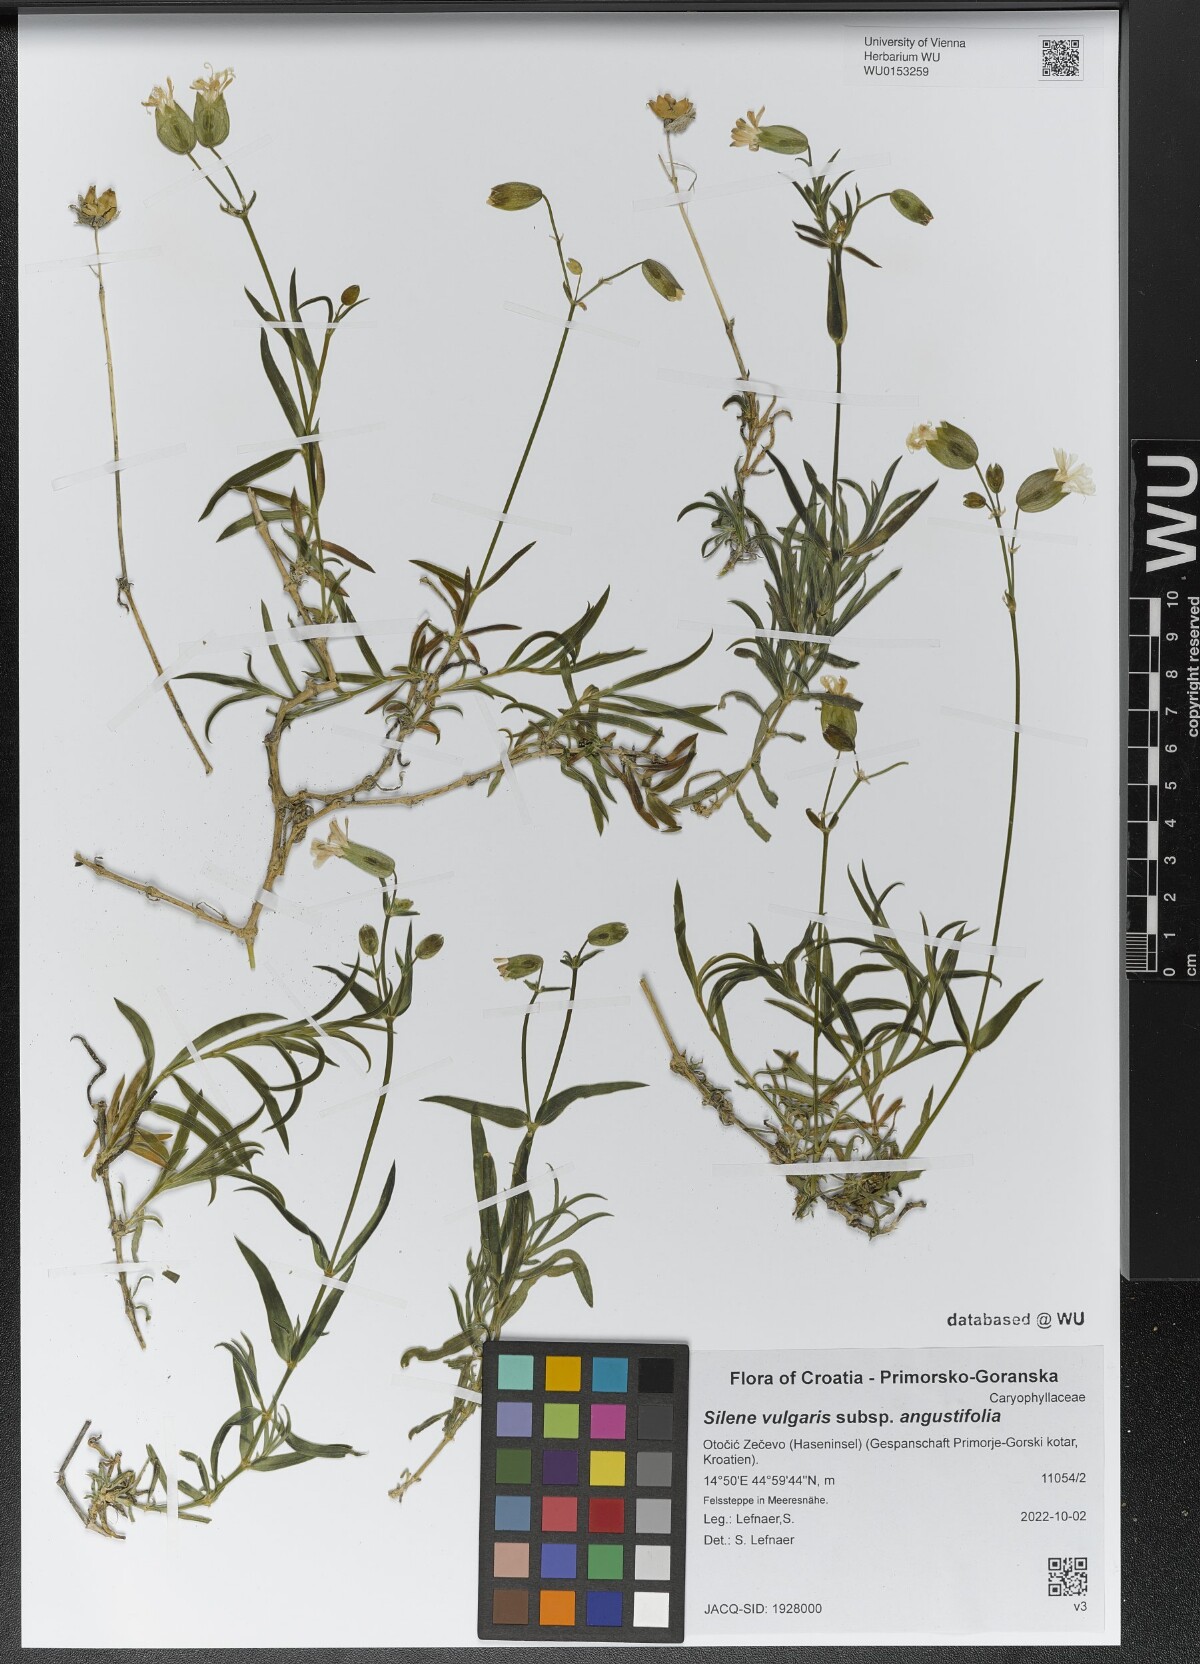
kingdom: Plantae
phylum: Tracheophyta
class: Magnoliopsida
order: Caryophyllales
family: Caryophyllaceae
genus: Silene
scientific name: Silene vulgaris
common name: Bladder campion
